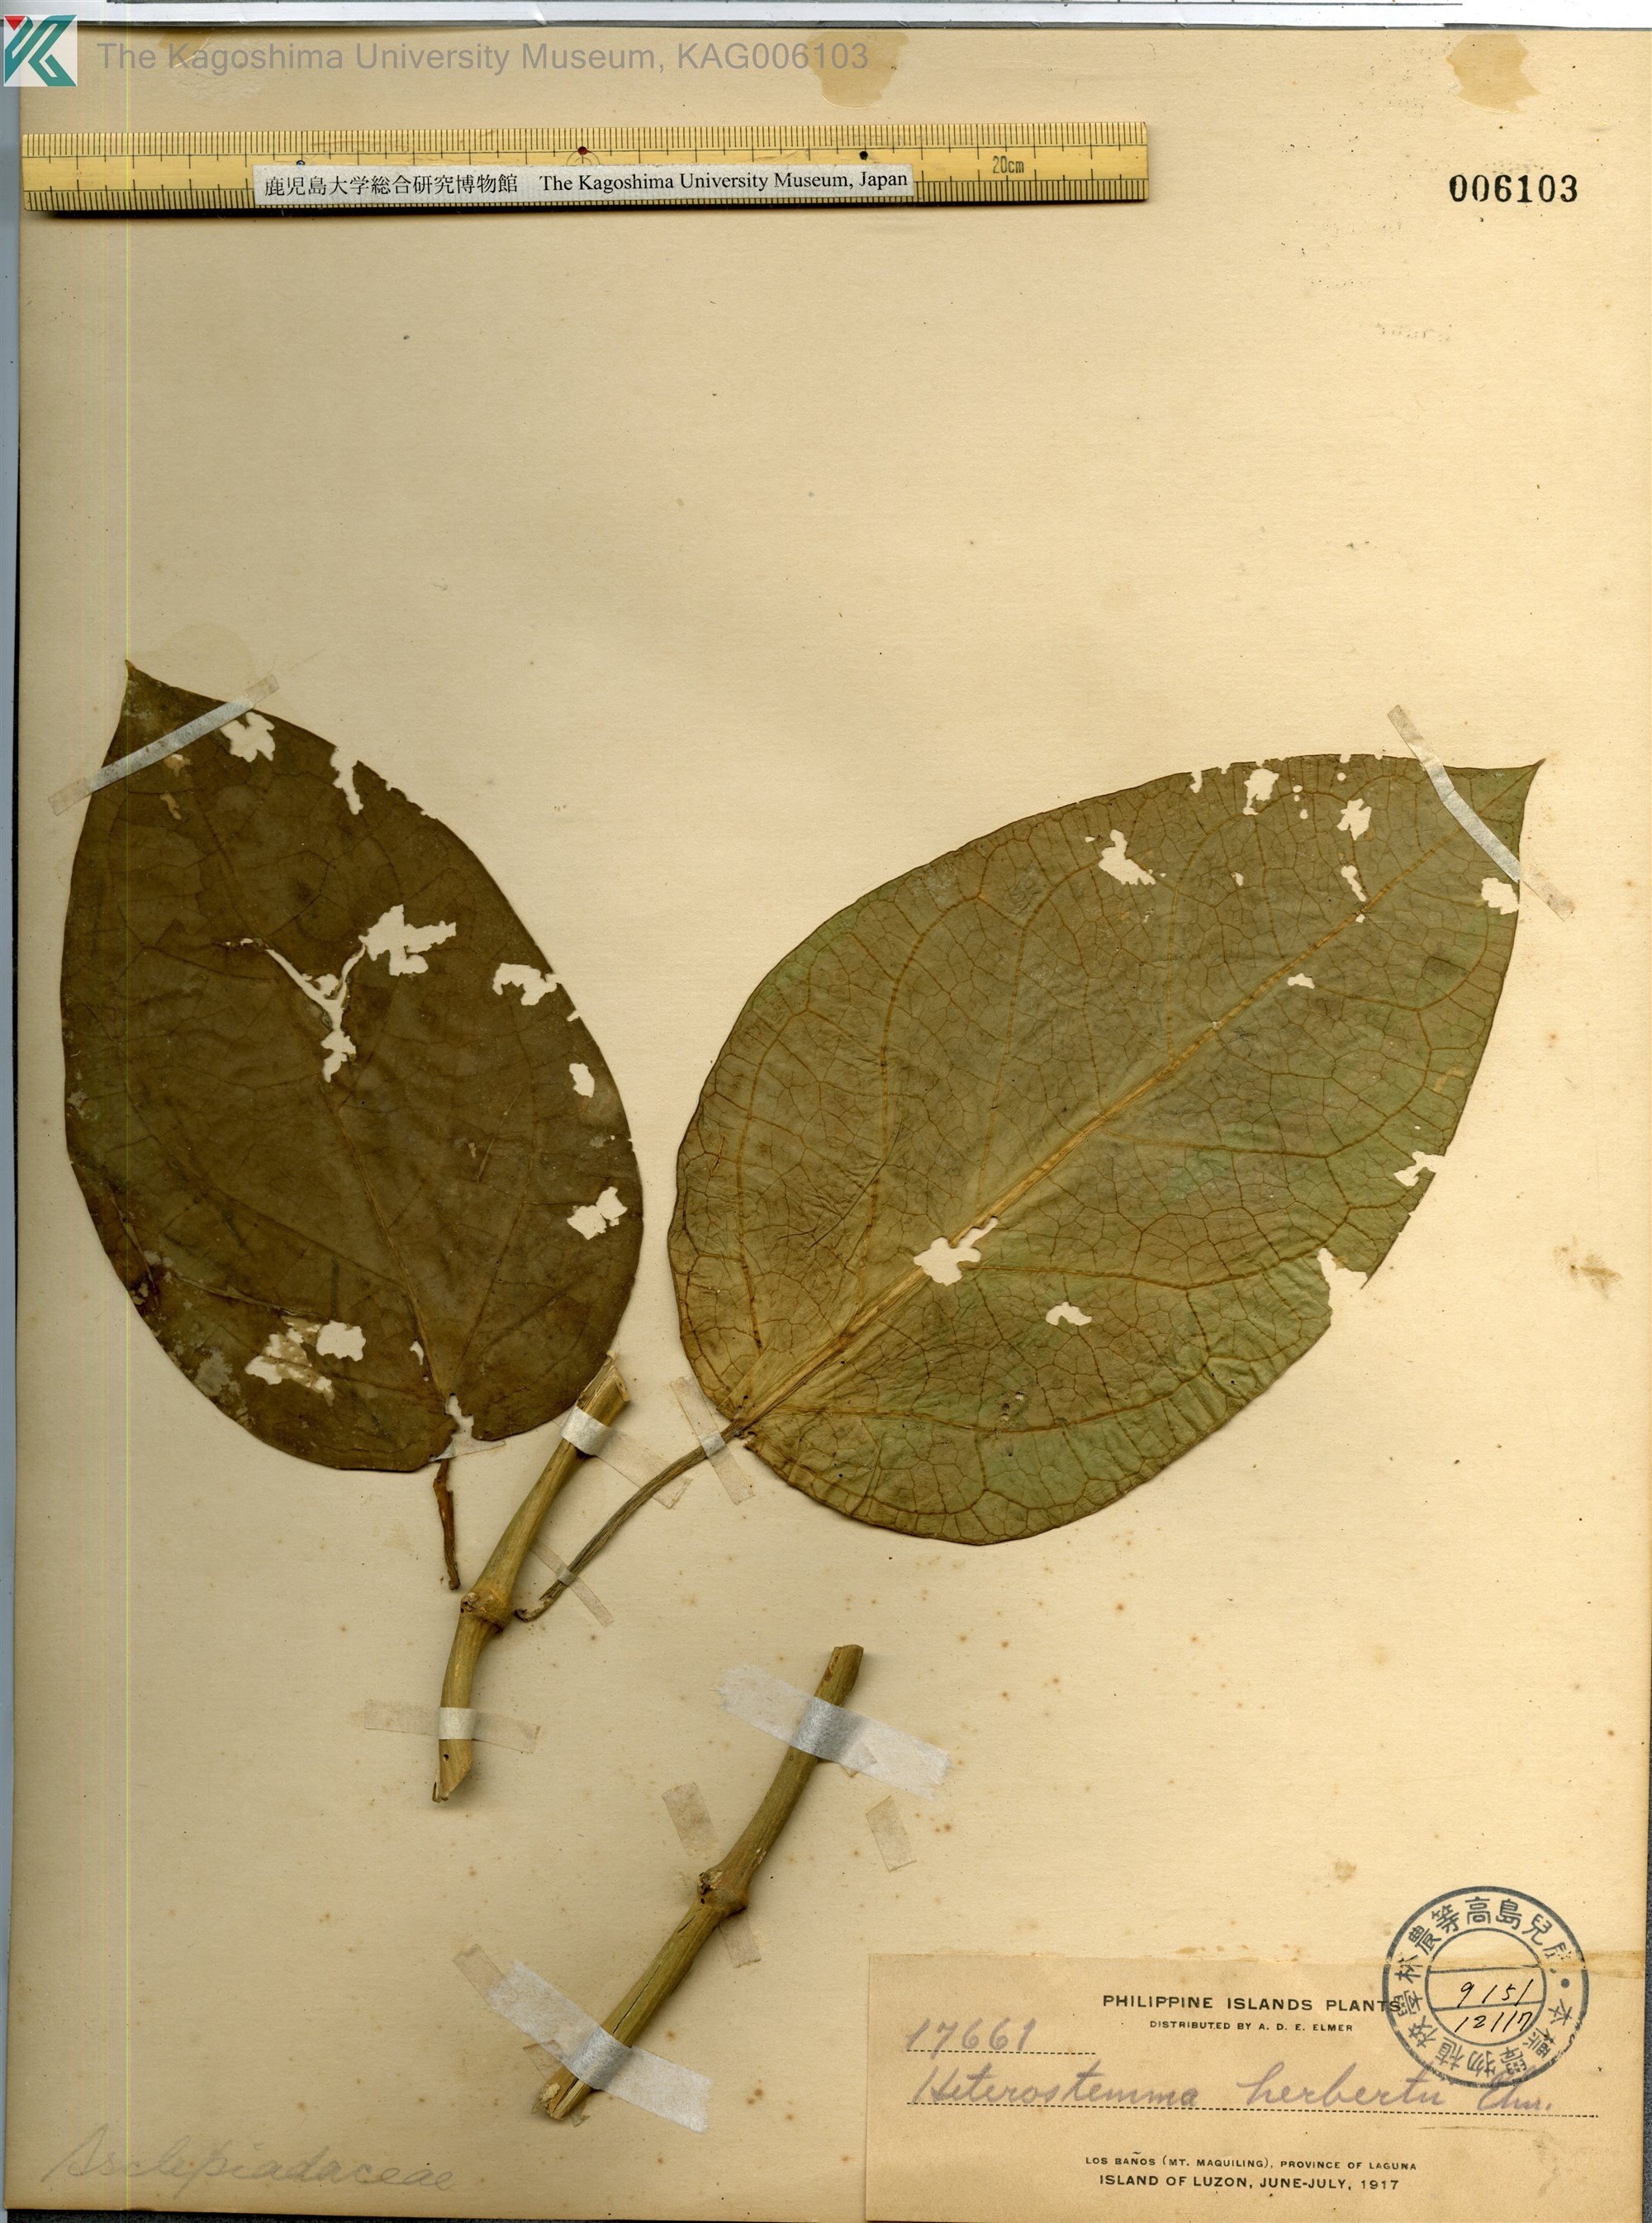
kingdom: Plantae
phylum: Tracheophyta
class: Magnoliopsida
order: Gentianales
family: Apocynaceae
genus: Heterostemma
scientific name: Heterostemma herbertii
